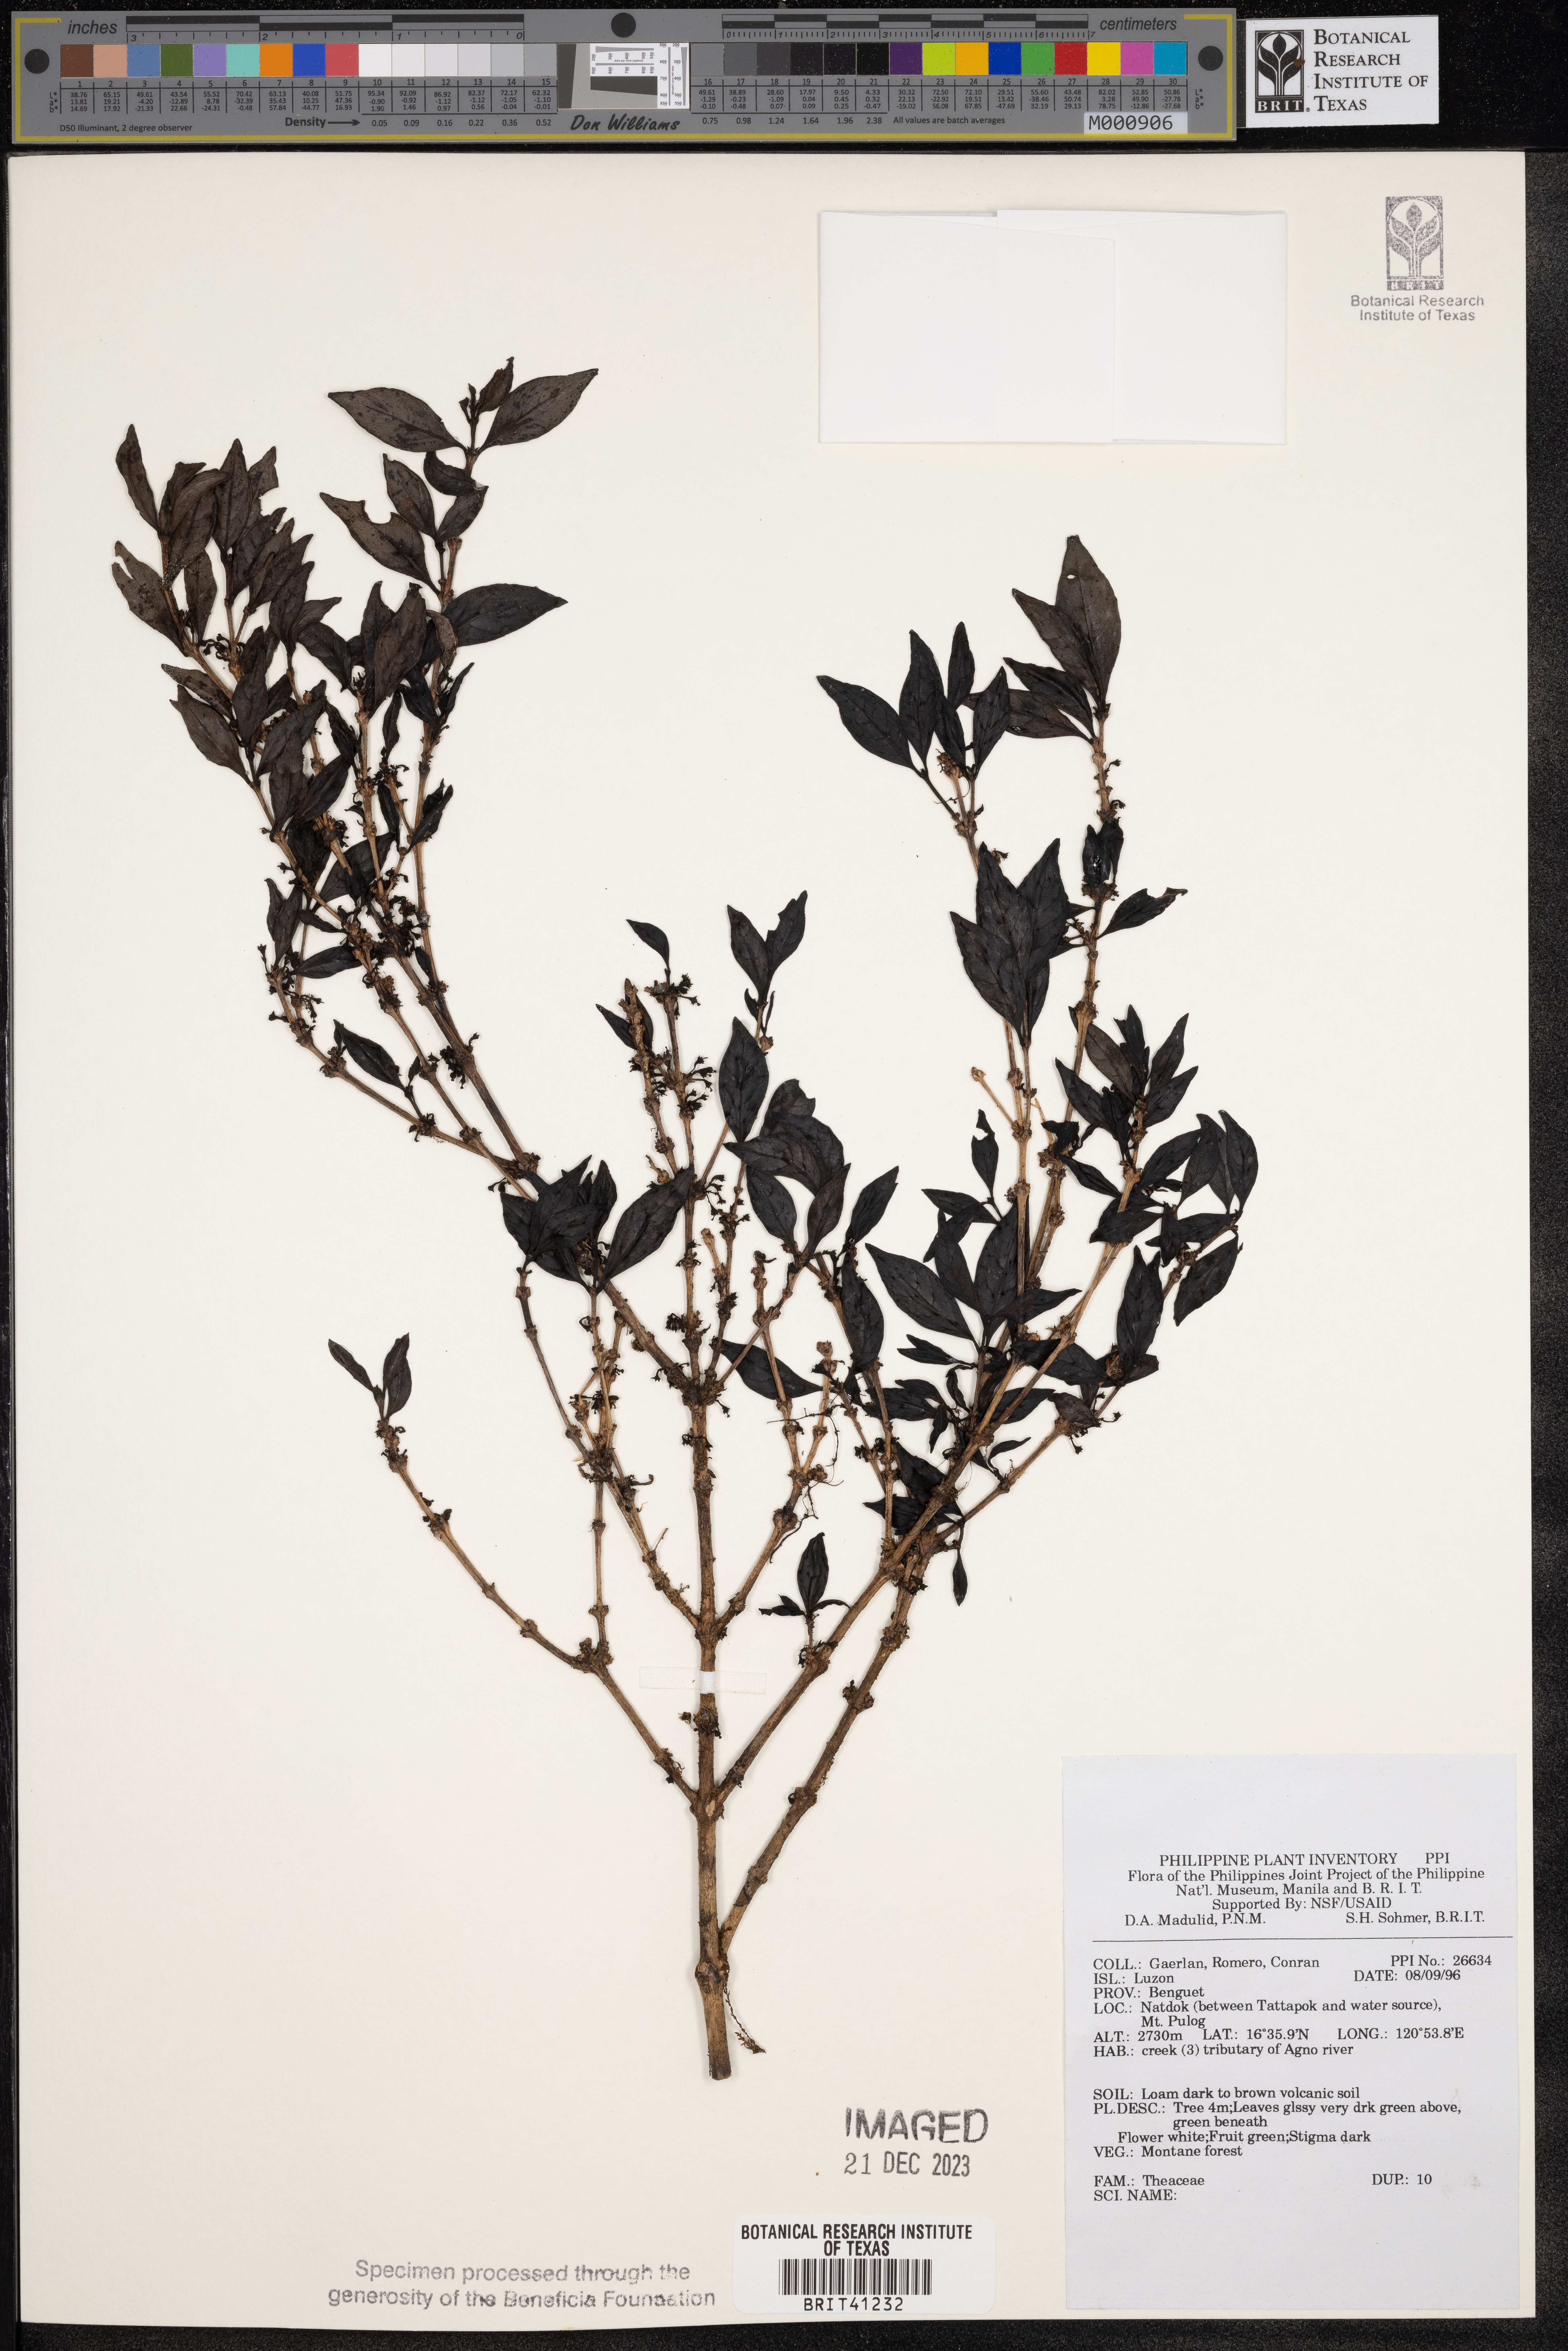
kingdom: Plantae
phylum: Tracheophyta
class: Magnoliopsida
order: Ericales
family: Theaceae
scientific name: Theaceae
